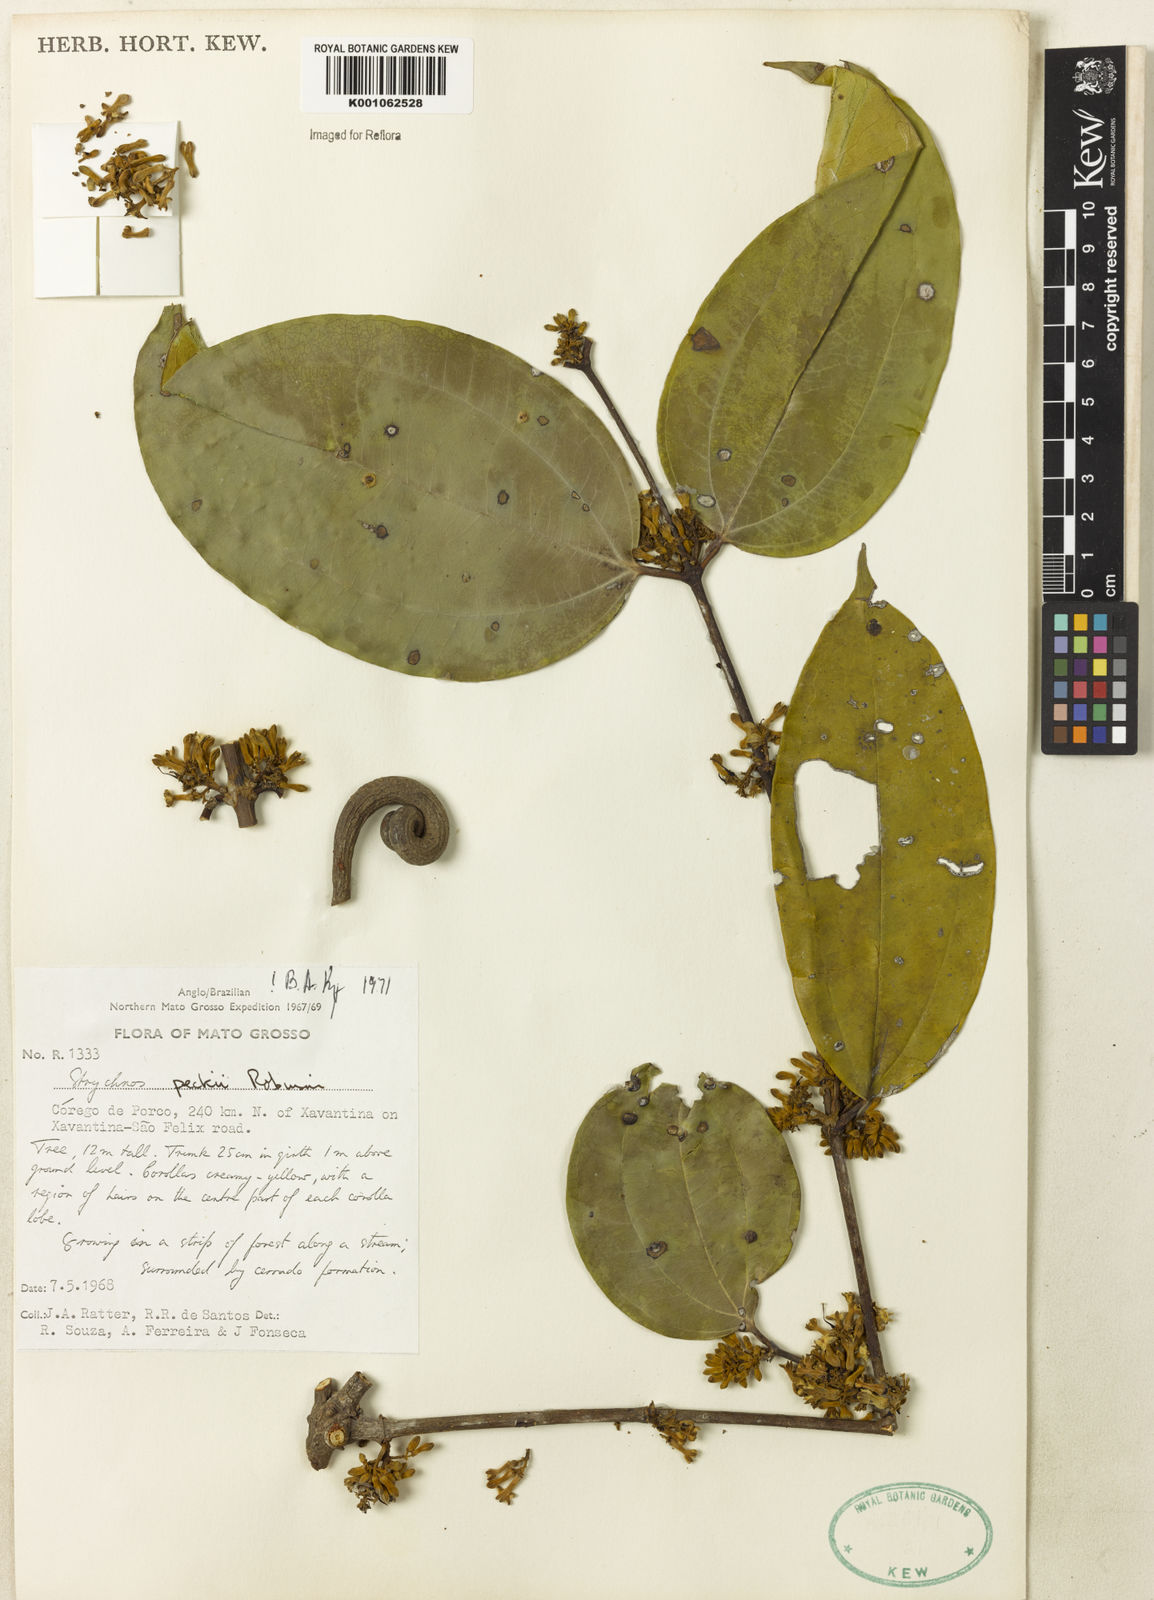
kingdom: Plantae
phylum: Tracheophyta
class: Magnoliopsida
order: Gentianales
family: Loganiaceae
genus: Strychnos
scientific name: Strychnos peckii
